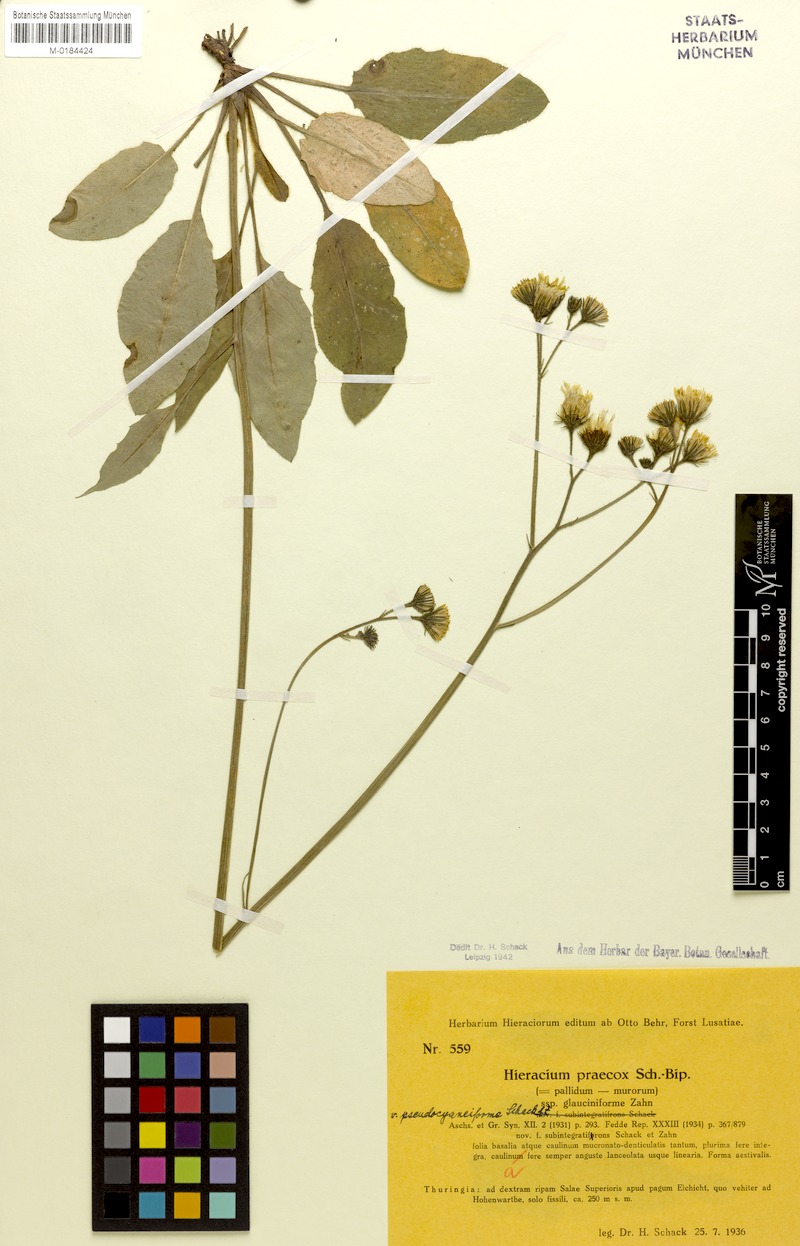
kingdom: Plantae
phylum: Tracheophyta
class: Magnoliopsida
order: Asterales
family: Asteraceae
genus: Hieracium
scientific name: Hieracium glaucinum
